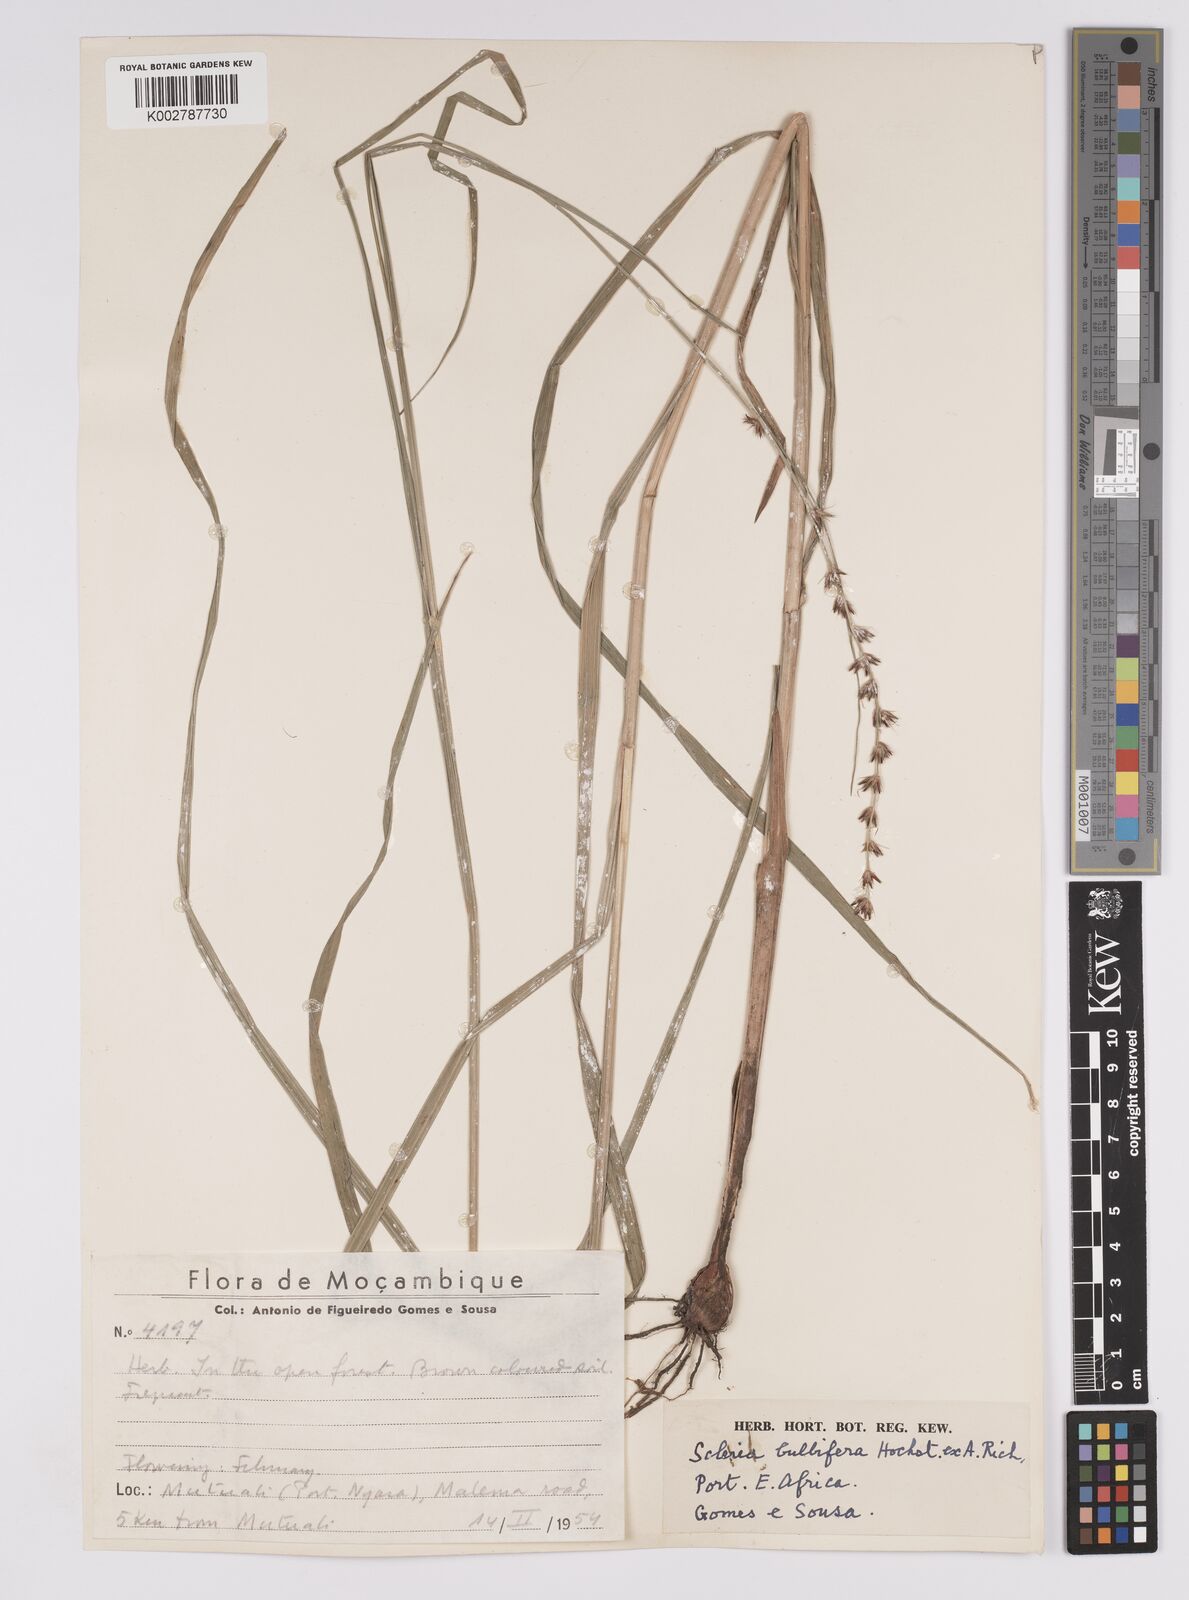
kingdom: Plantae
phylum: Tracheophyta
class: Liliopsida
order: Poales
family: Cyperaceae
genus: Scleria
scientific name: Scleria bulbifera
